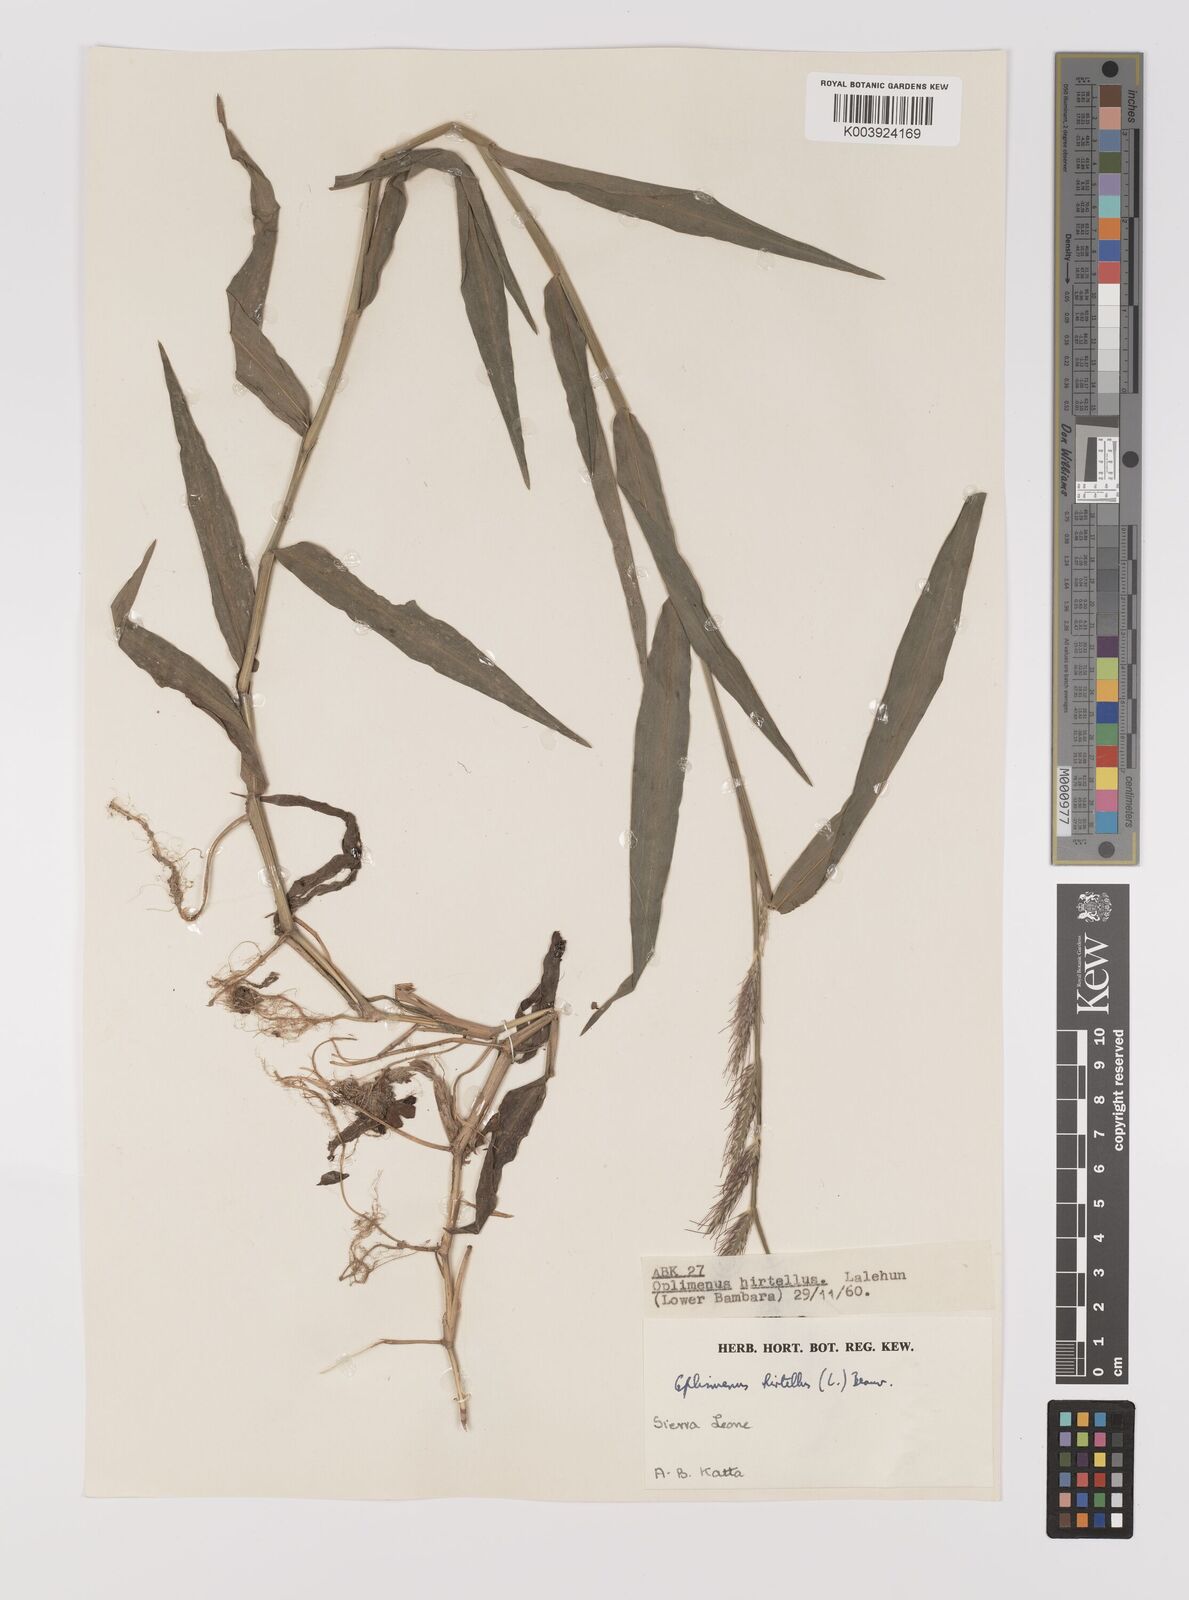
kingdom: Plantae
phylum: Tracheophyta
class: Liliopsida
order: Poales
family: Poaceae
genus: Oplismenus
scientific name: Oplismenus hirtellus
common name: Basketgrass
